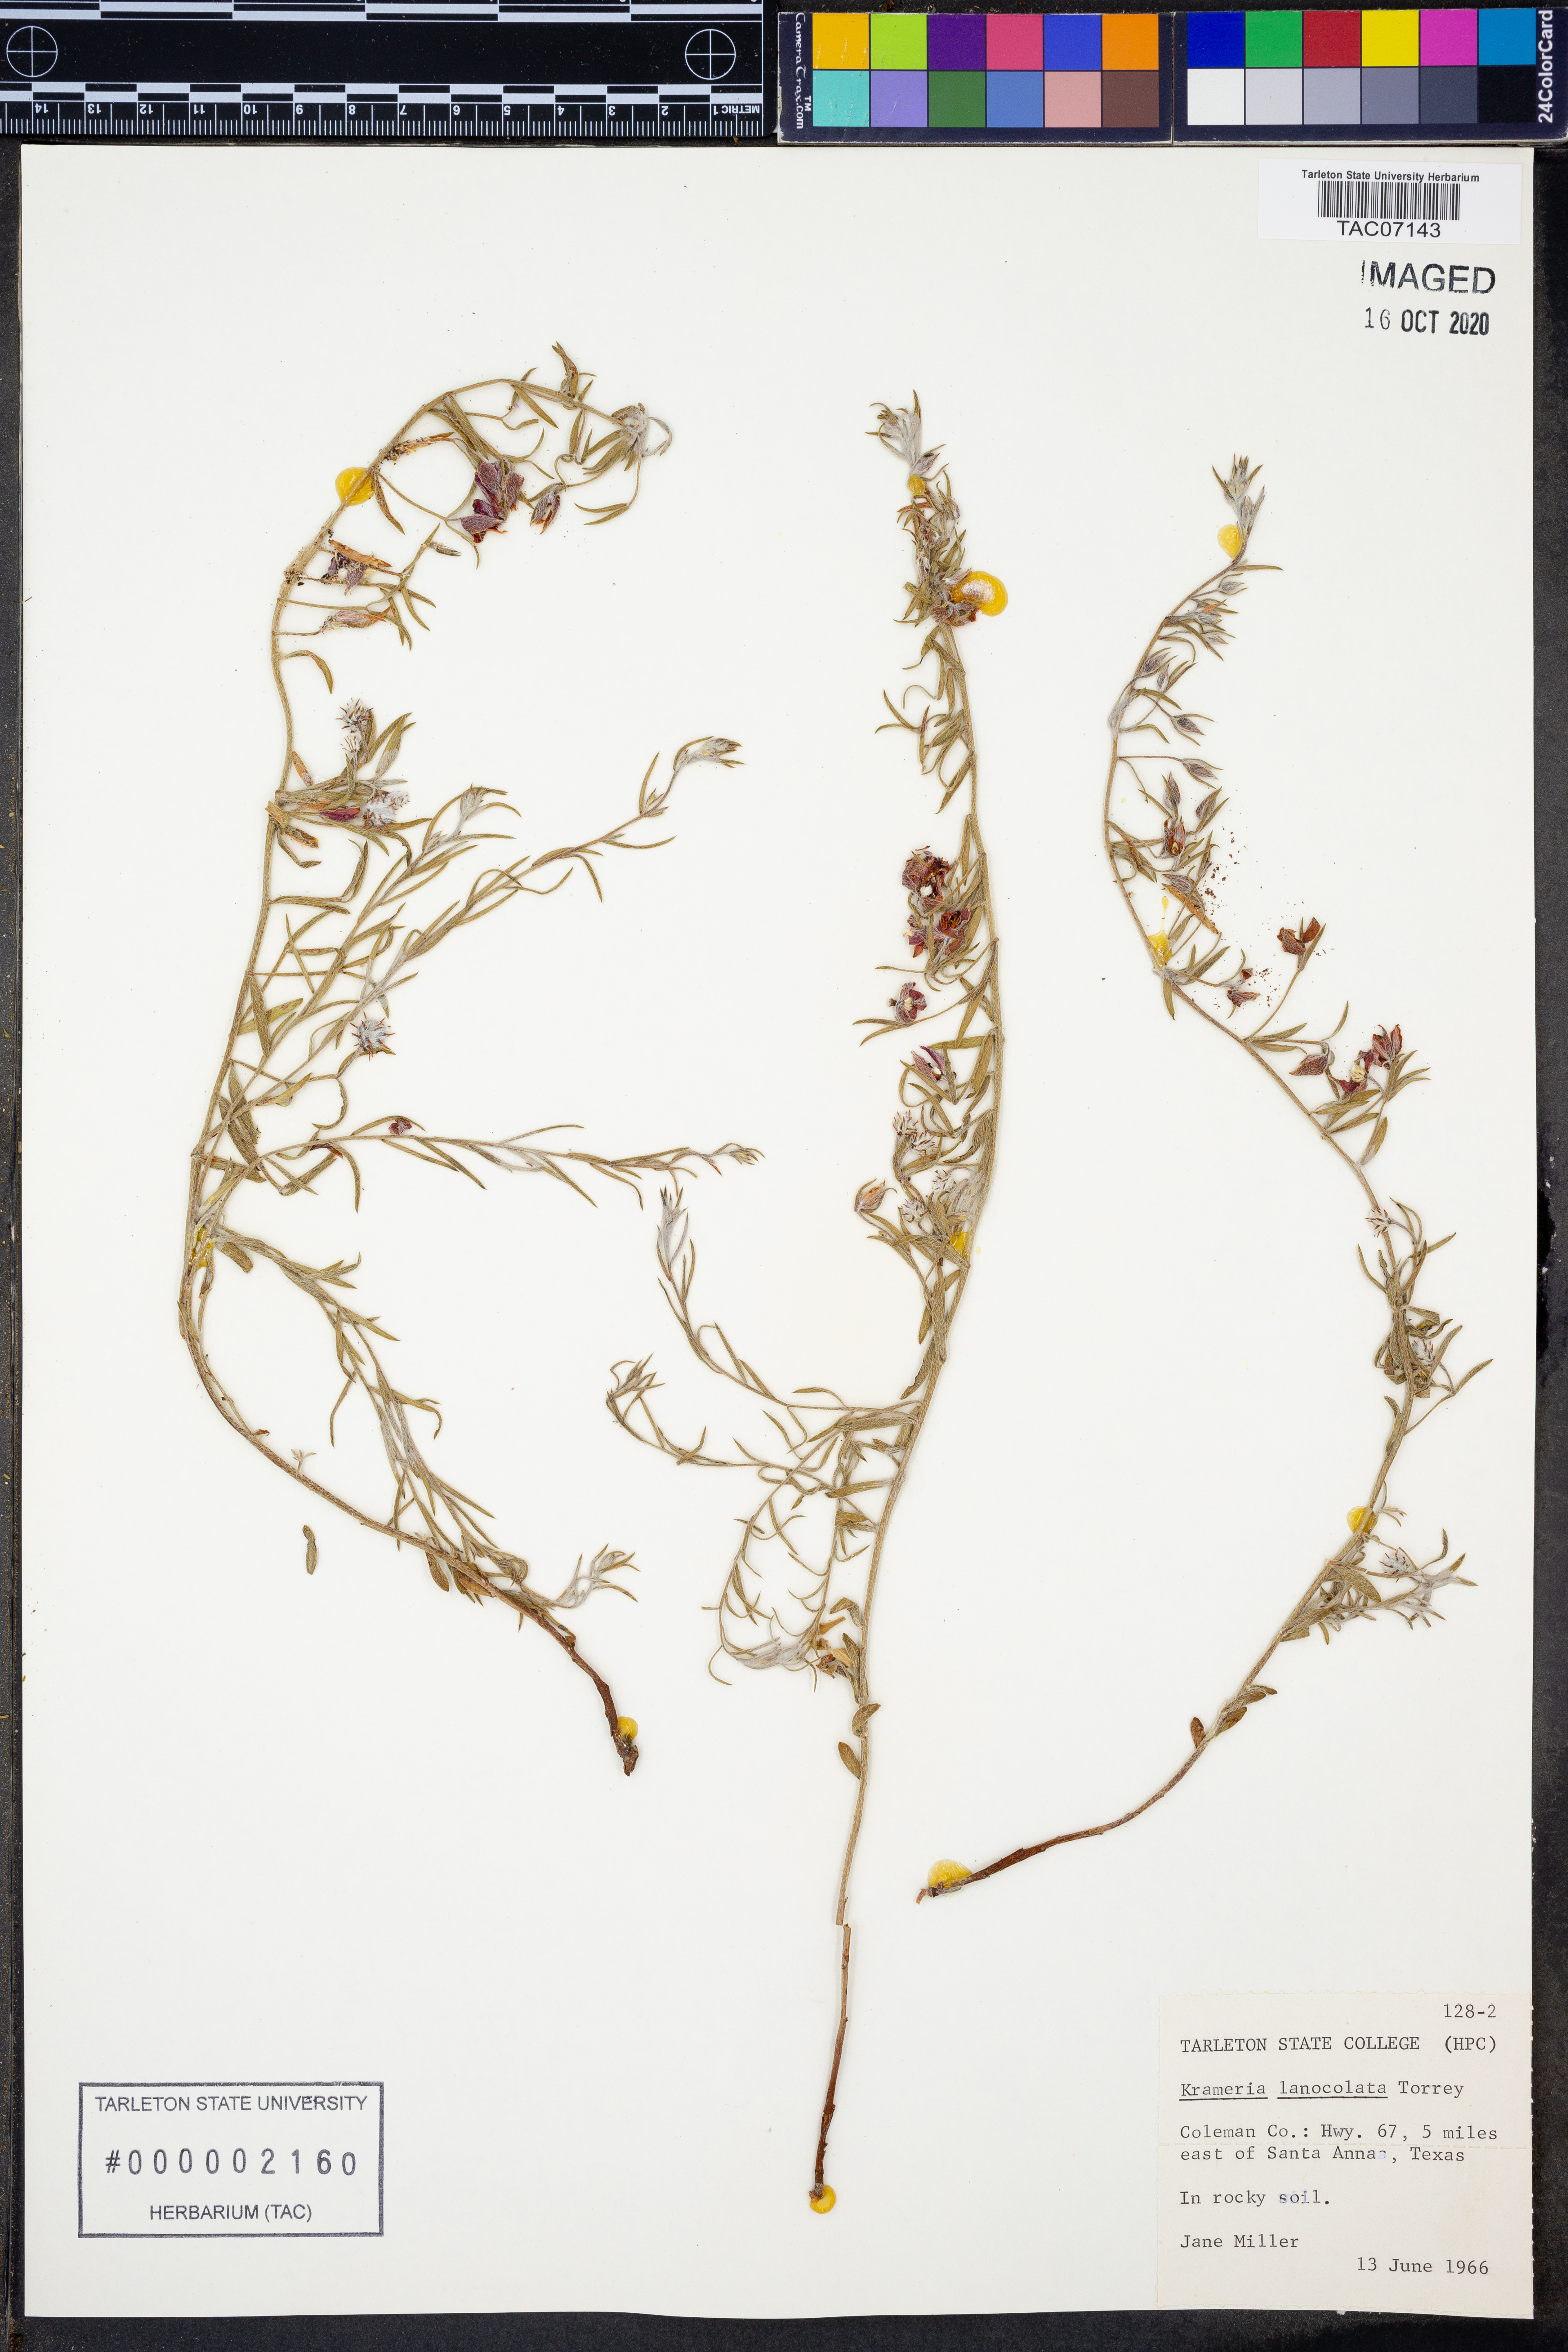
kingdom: Plantae
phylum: Tracheophyta
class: Magnoliopsida
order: Zygophyllales
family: Krameriaceae
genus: Krameria
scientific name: Krameria lanceolata
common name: Ratany
